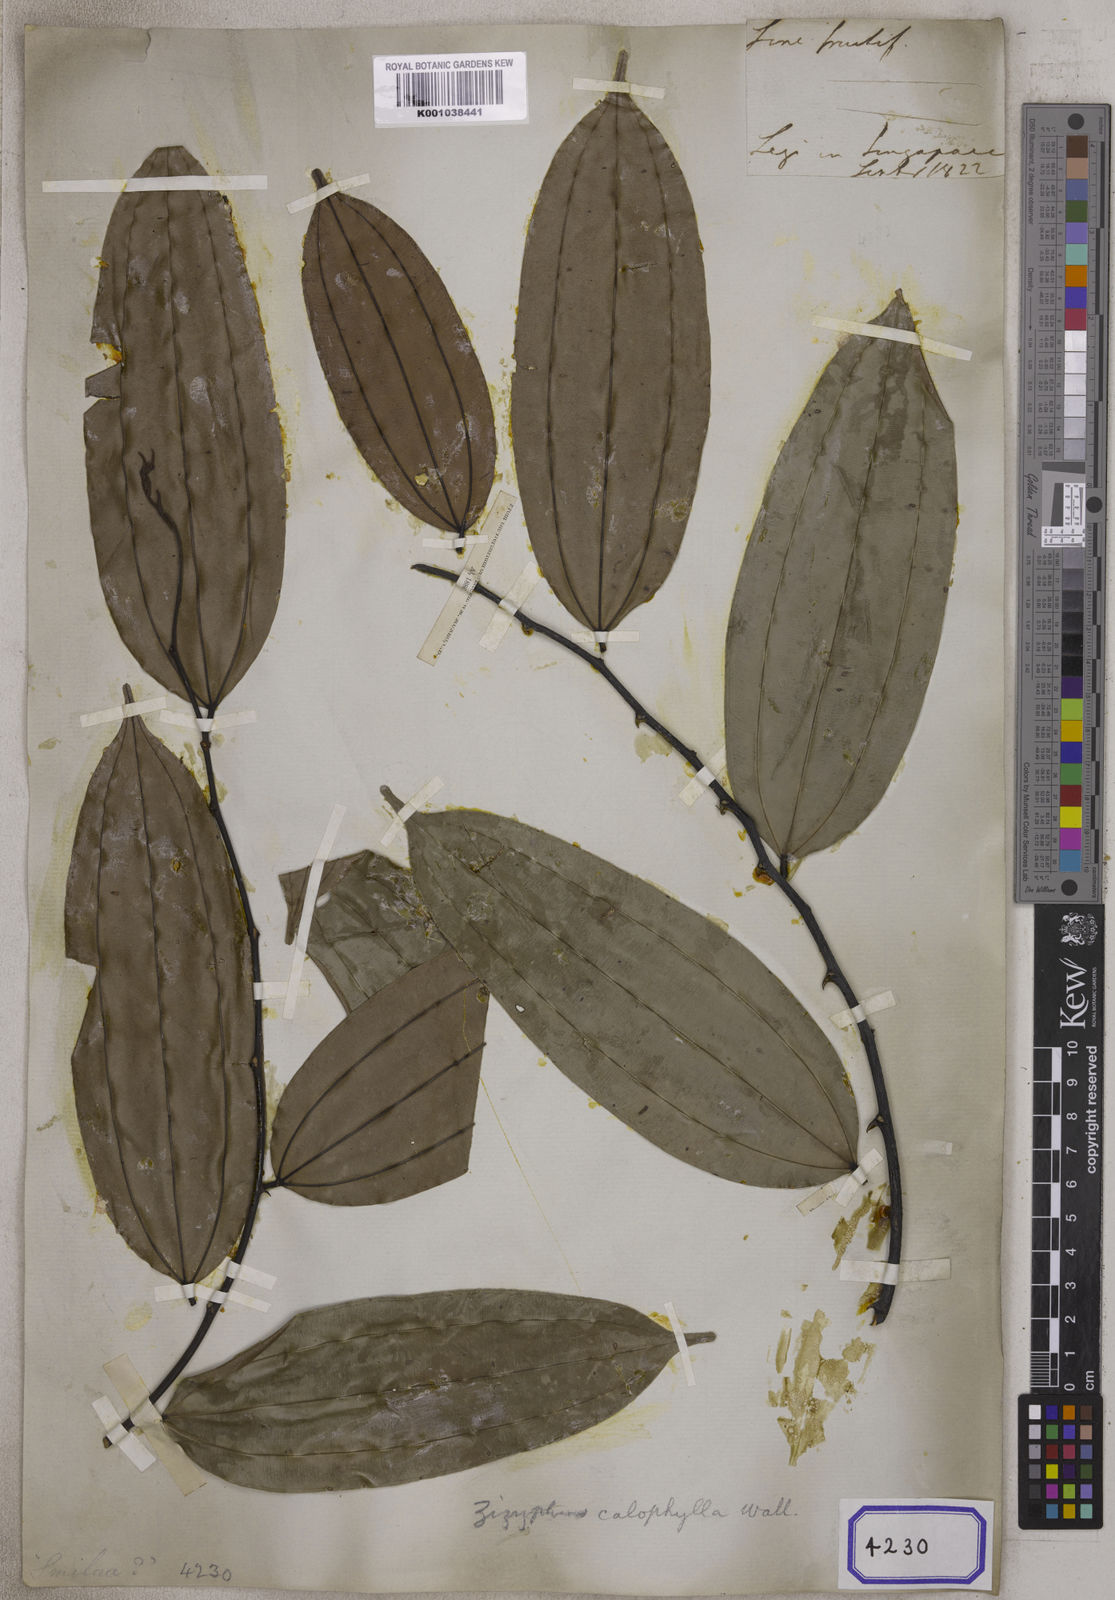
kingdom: Plantae
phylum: Tracheophyta
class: Magnoliopsida
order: Rosales
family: Rhamnaceae
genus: Ziziphus
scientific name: Ziziphus calophylla
